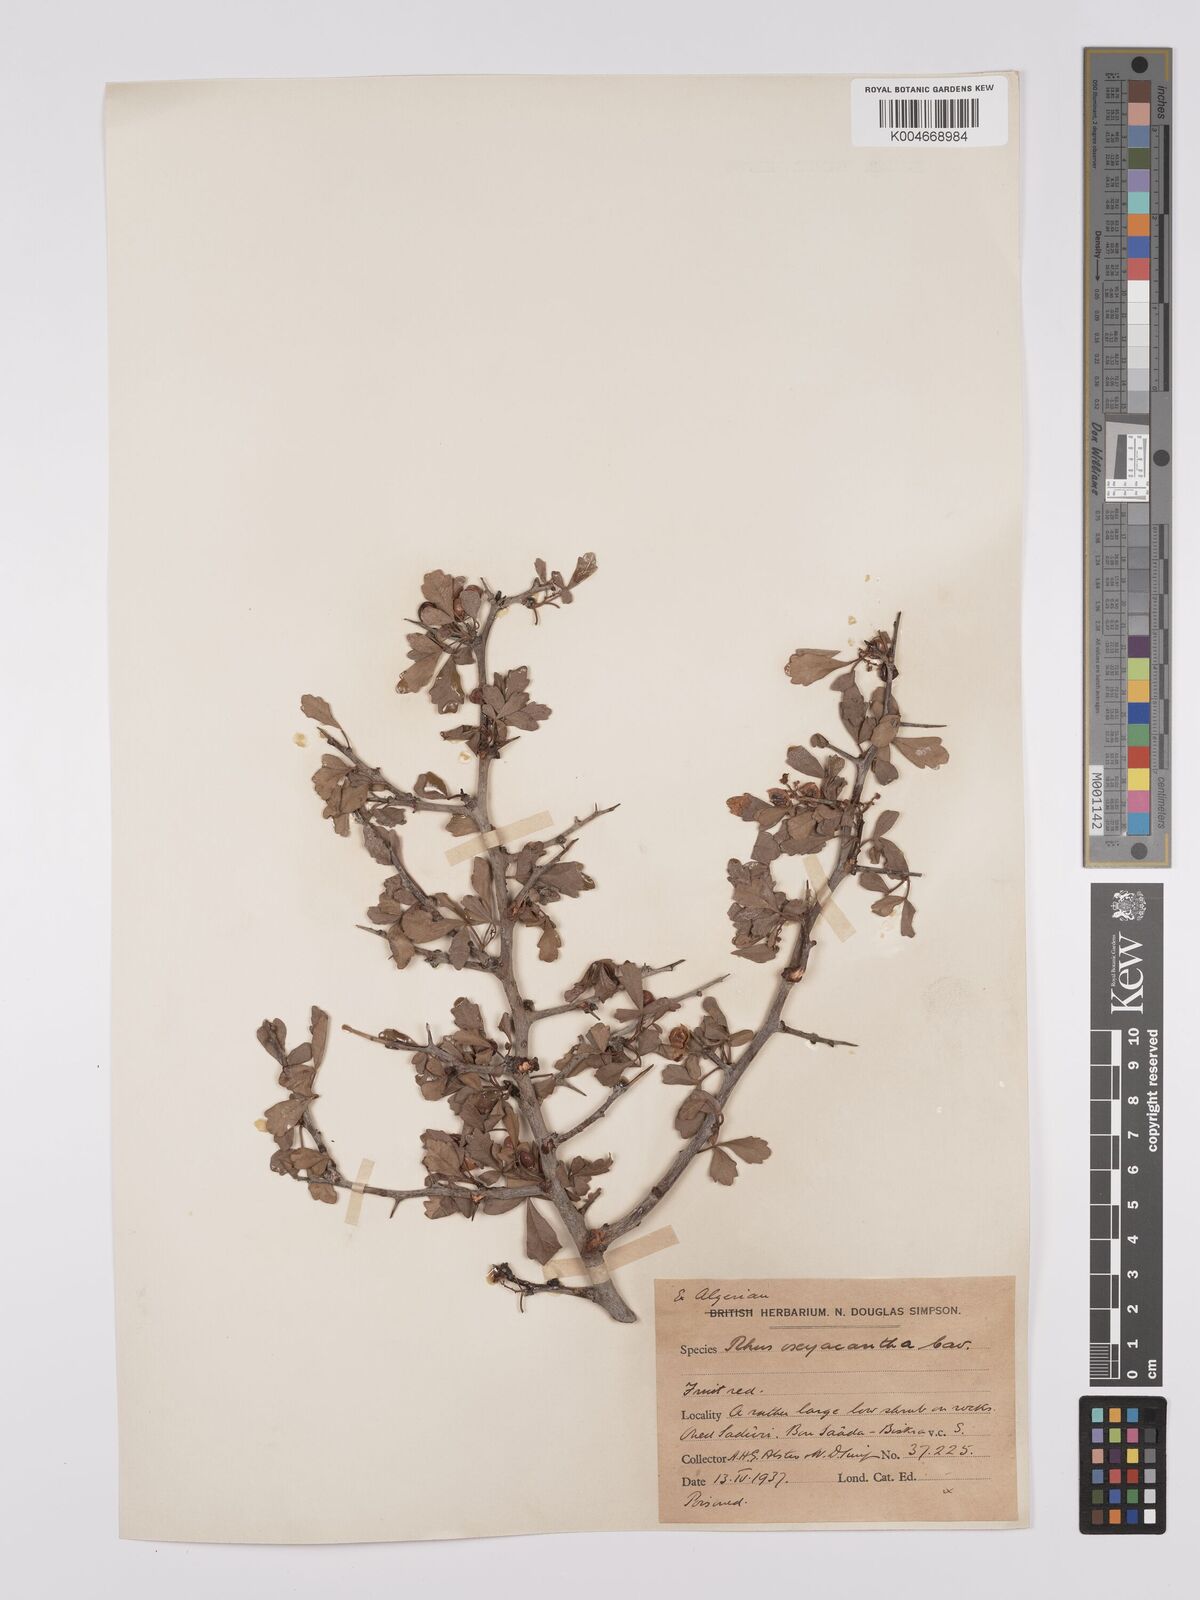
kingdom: Plantae
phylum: Tracheophyta
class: Magnoliopsida
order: Sapindales
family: Anacardiaceae
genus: Rhus
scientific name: Rhus
